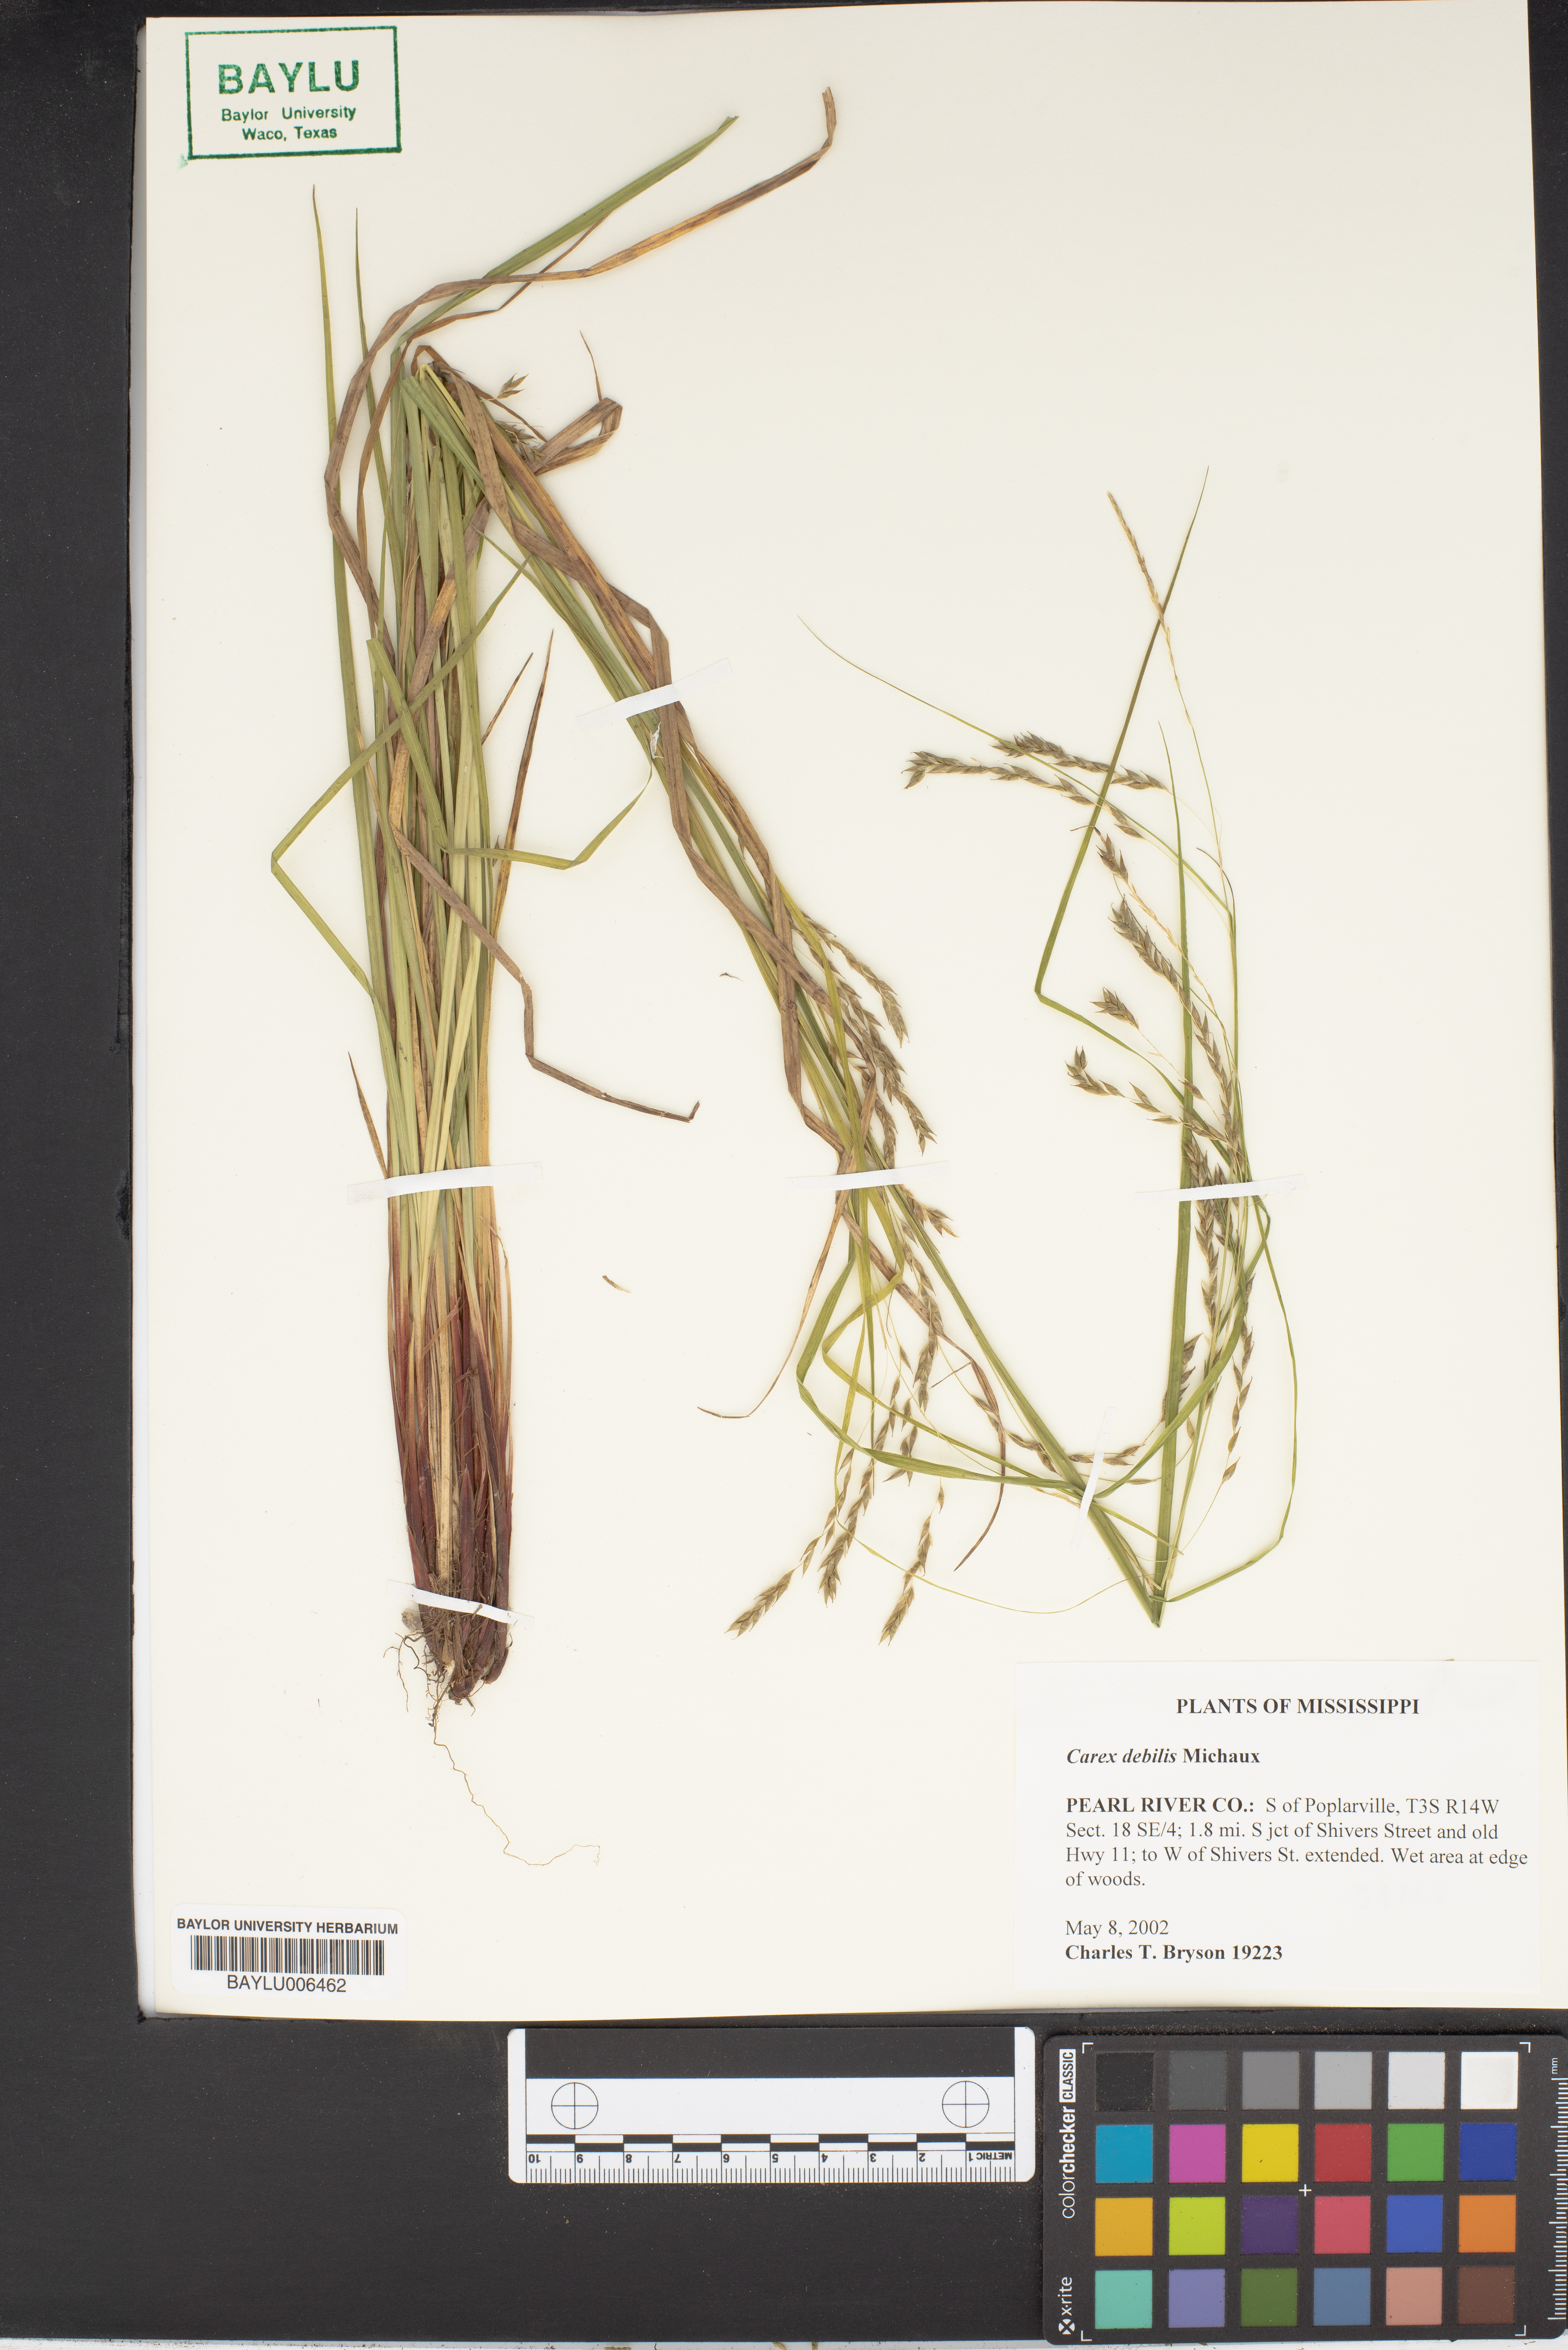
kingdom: Plantae
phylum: Tracheophyta
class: Liliopsida
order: Poales
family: Cyperaceae
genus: Carex
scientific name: Carex debilis
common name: White-edge sedge
